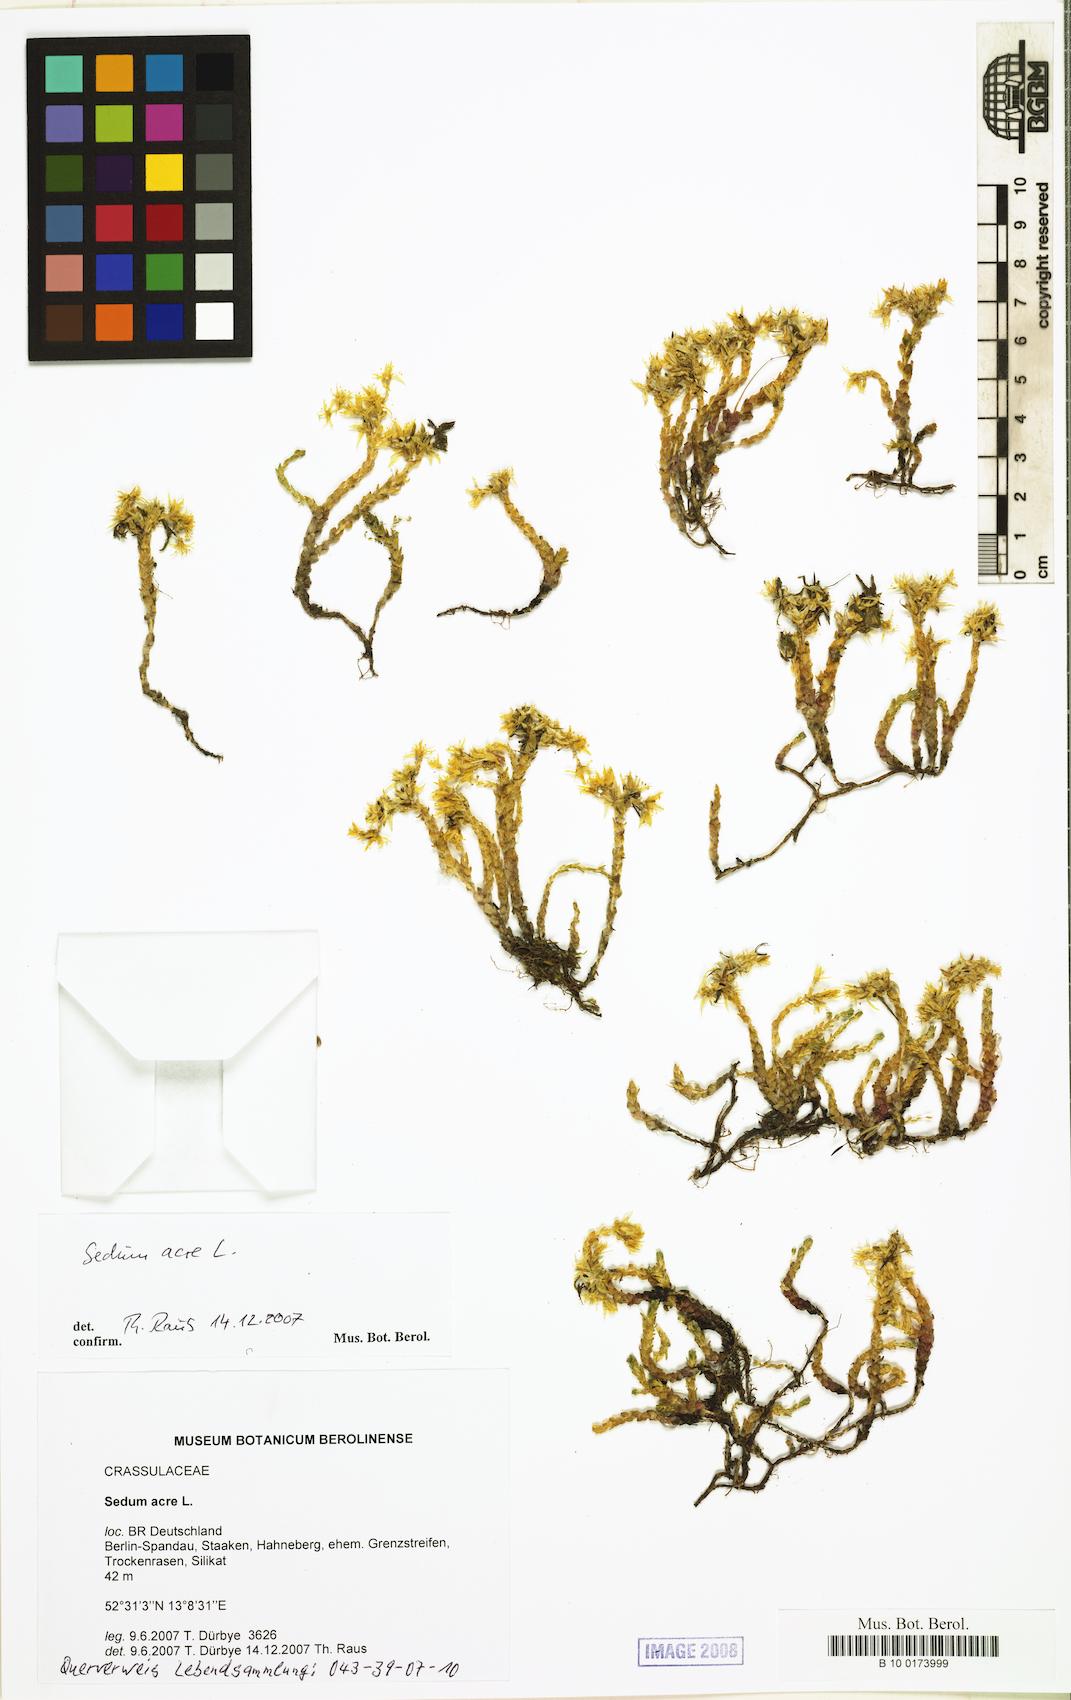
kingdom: Plantae
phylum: Tracheophyta
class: Magnoliopsida
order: Saxifragales
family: Crassulaceae
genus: Sedum
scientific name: Sedum acre
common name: Biting stonecrop
